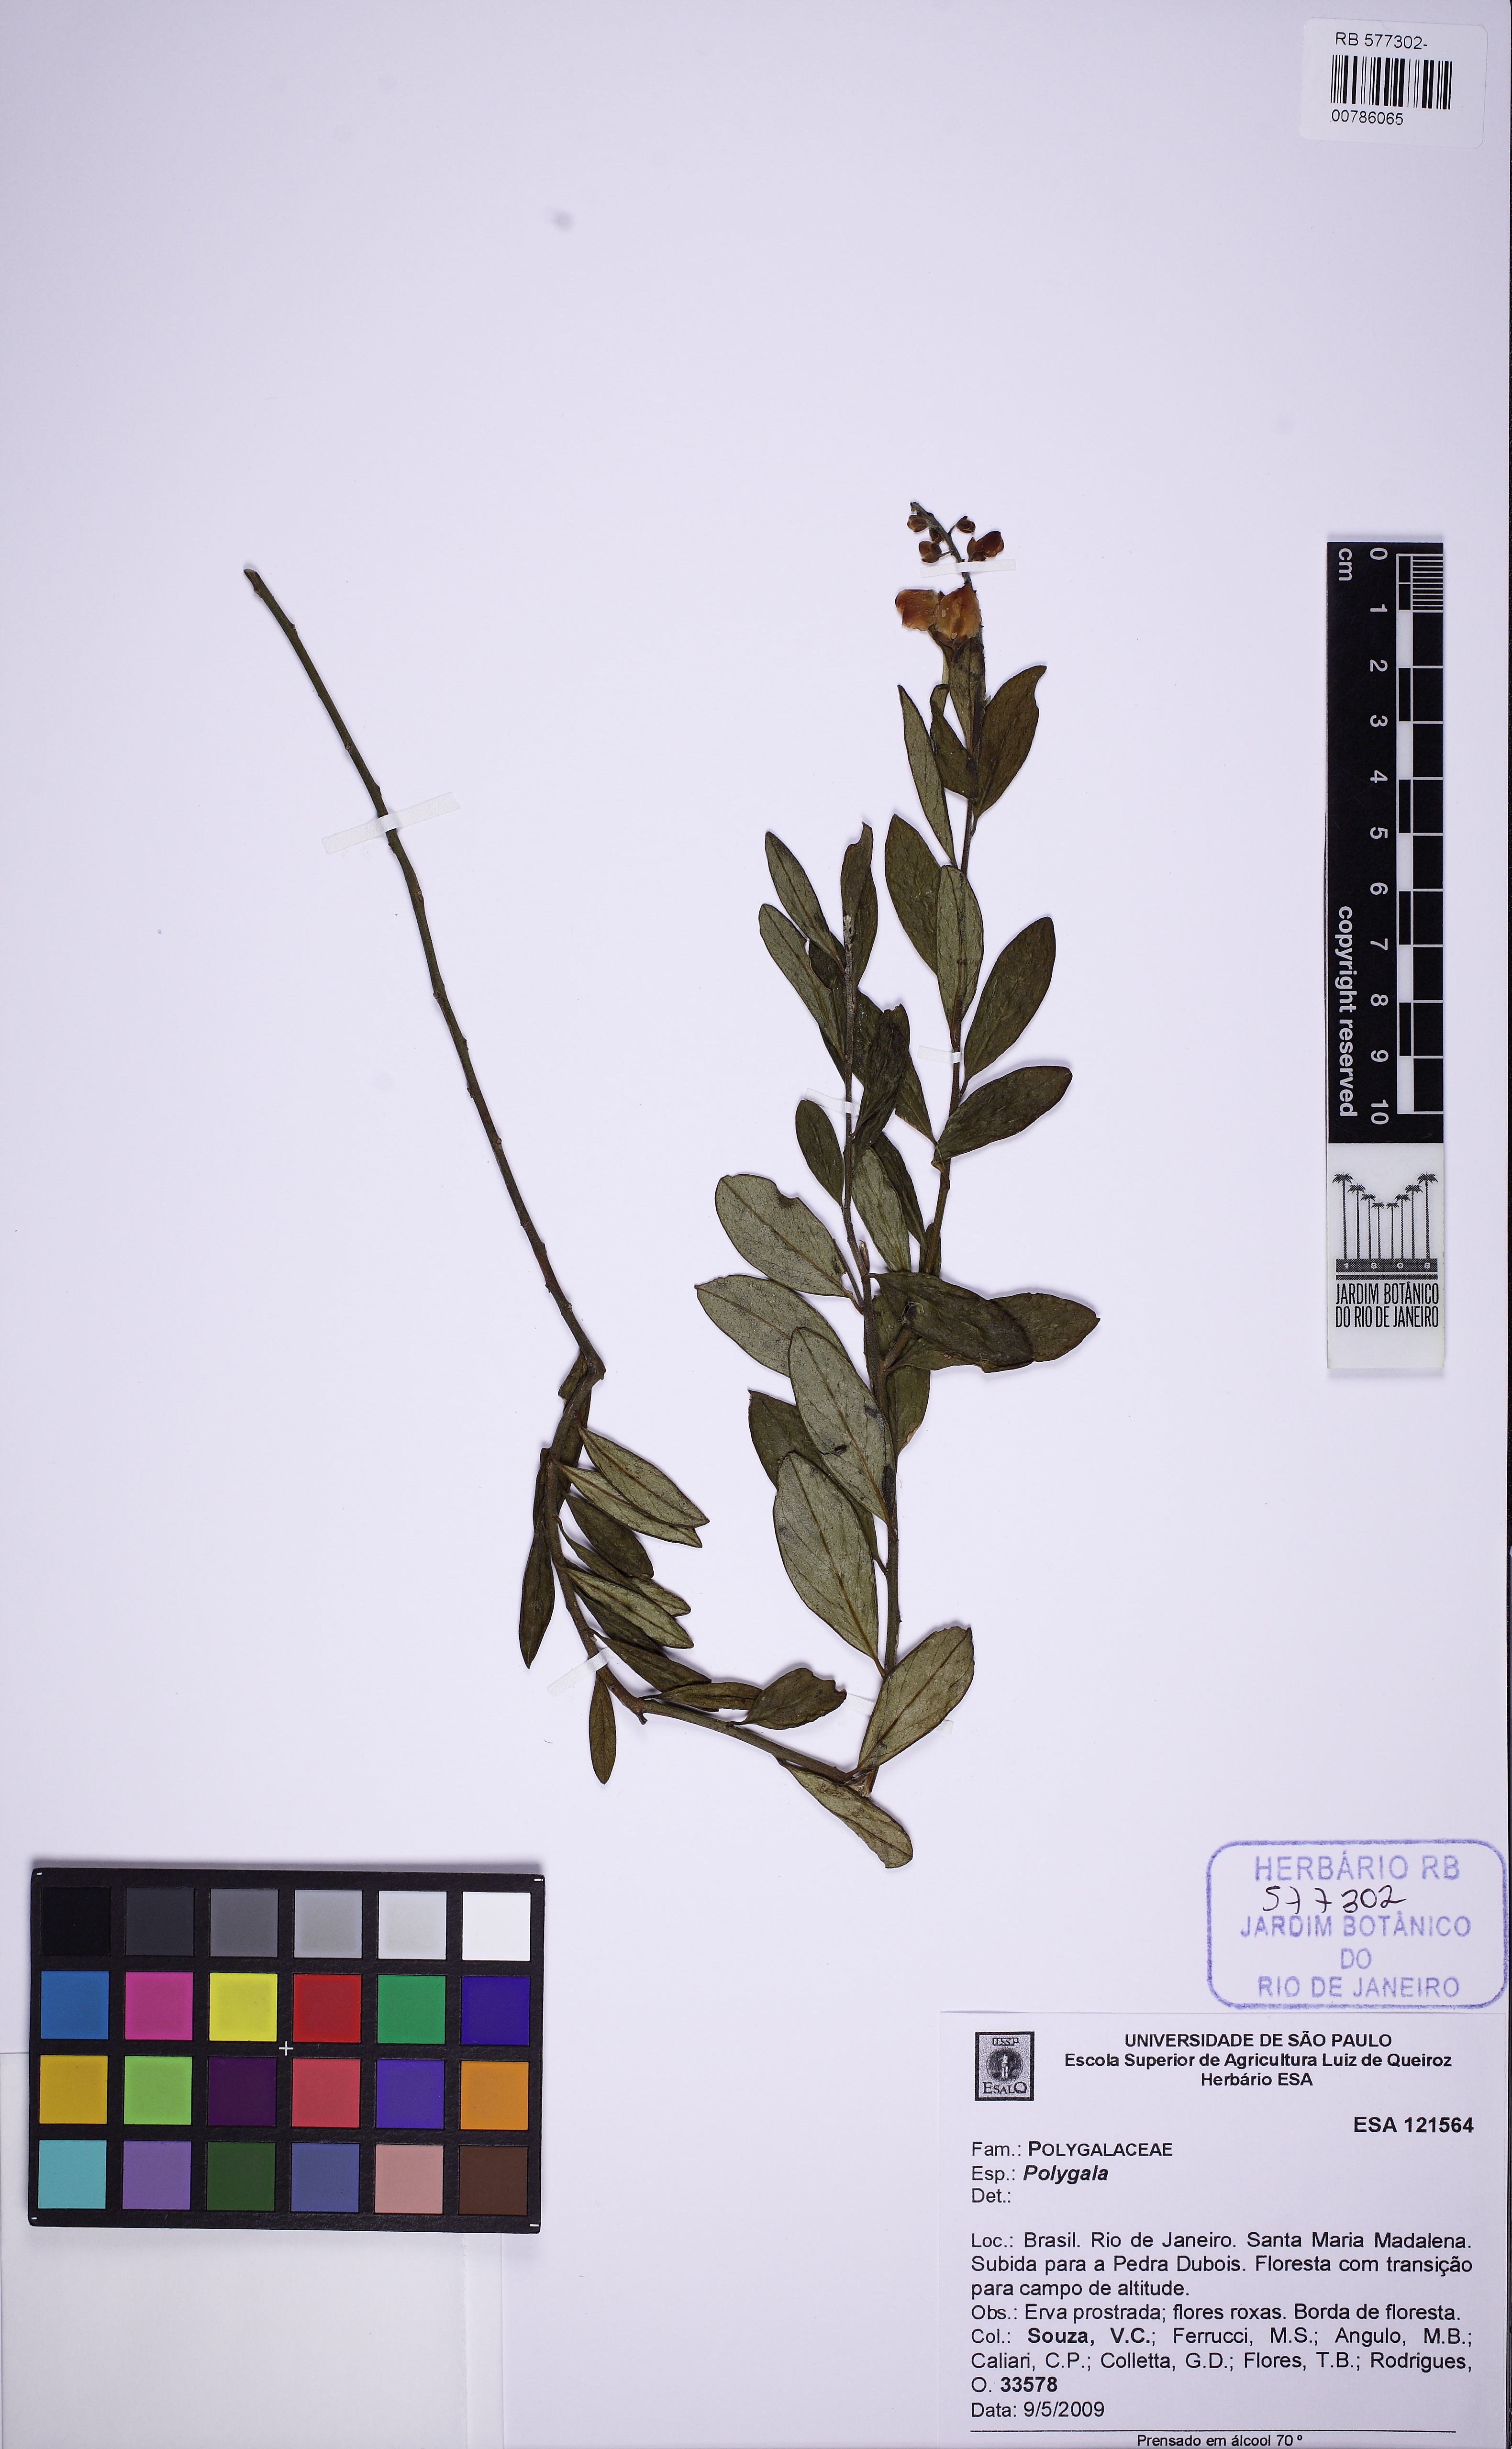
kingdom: Plantae
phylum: Tracheophyta
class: Magnoliopsida
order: Fabales
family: Polygalaceae
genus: Caamembeca
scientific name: Caamembeca
